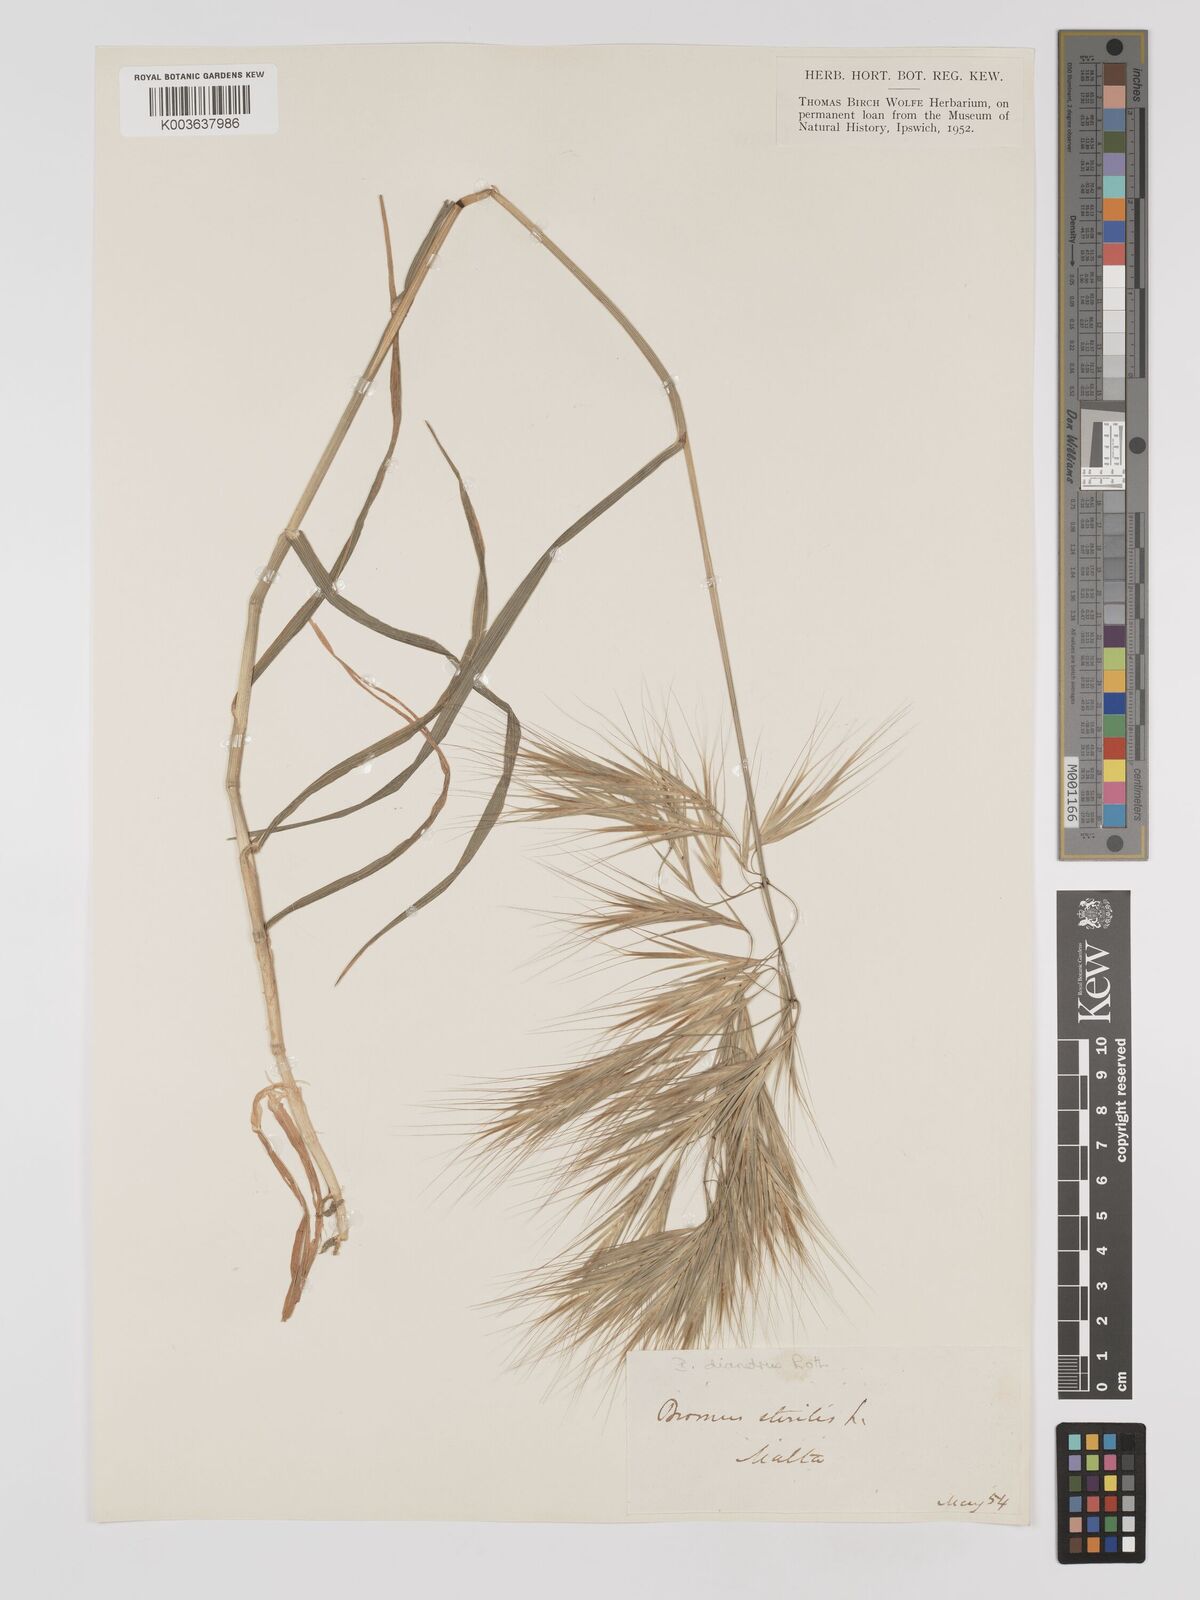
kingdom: Plantae
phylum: Tracheophyta
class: Liliopsida
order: Poales
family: Poaceae
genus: Bromus
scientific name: Bromus
